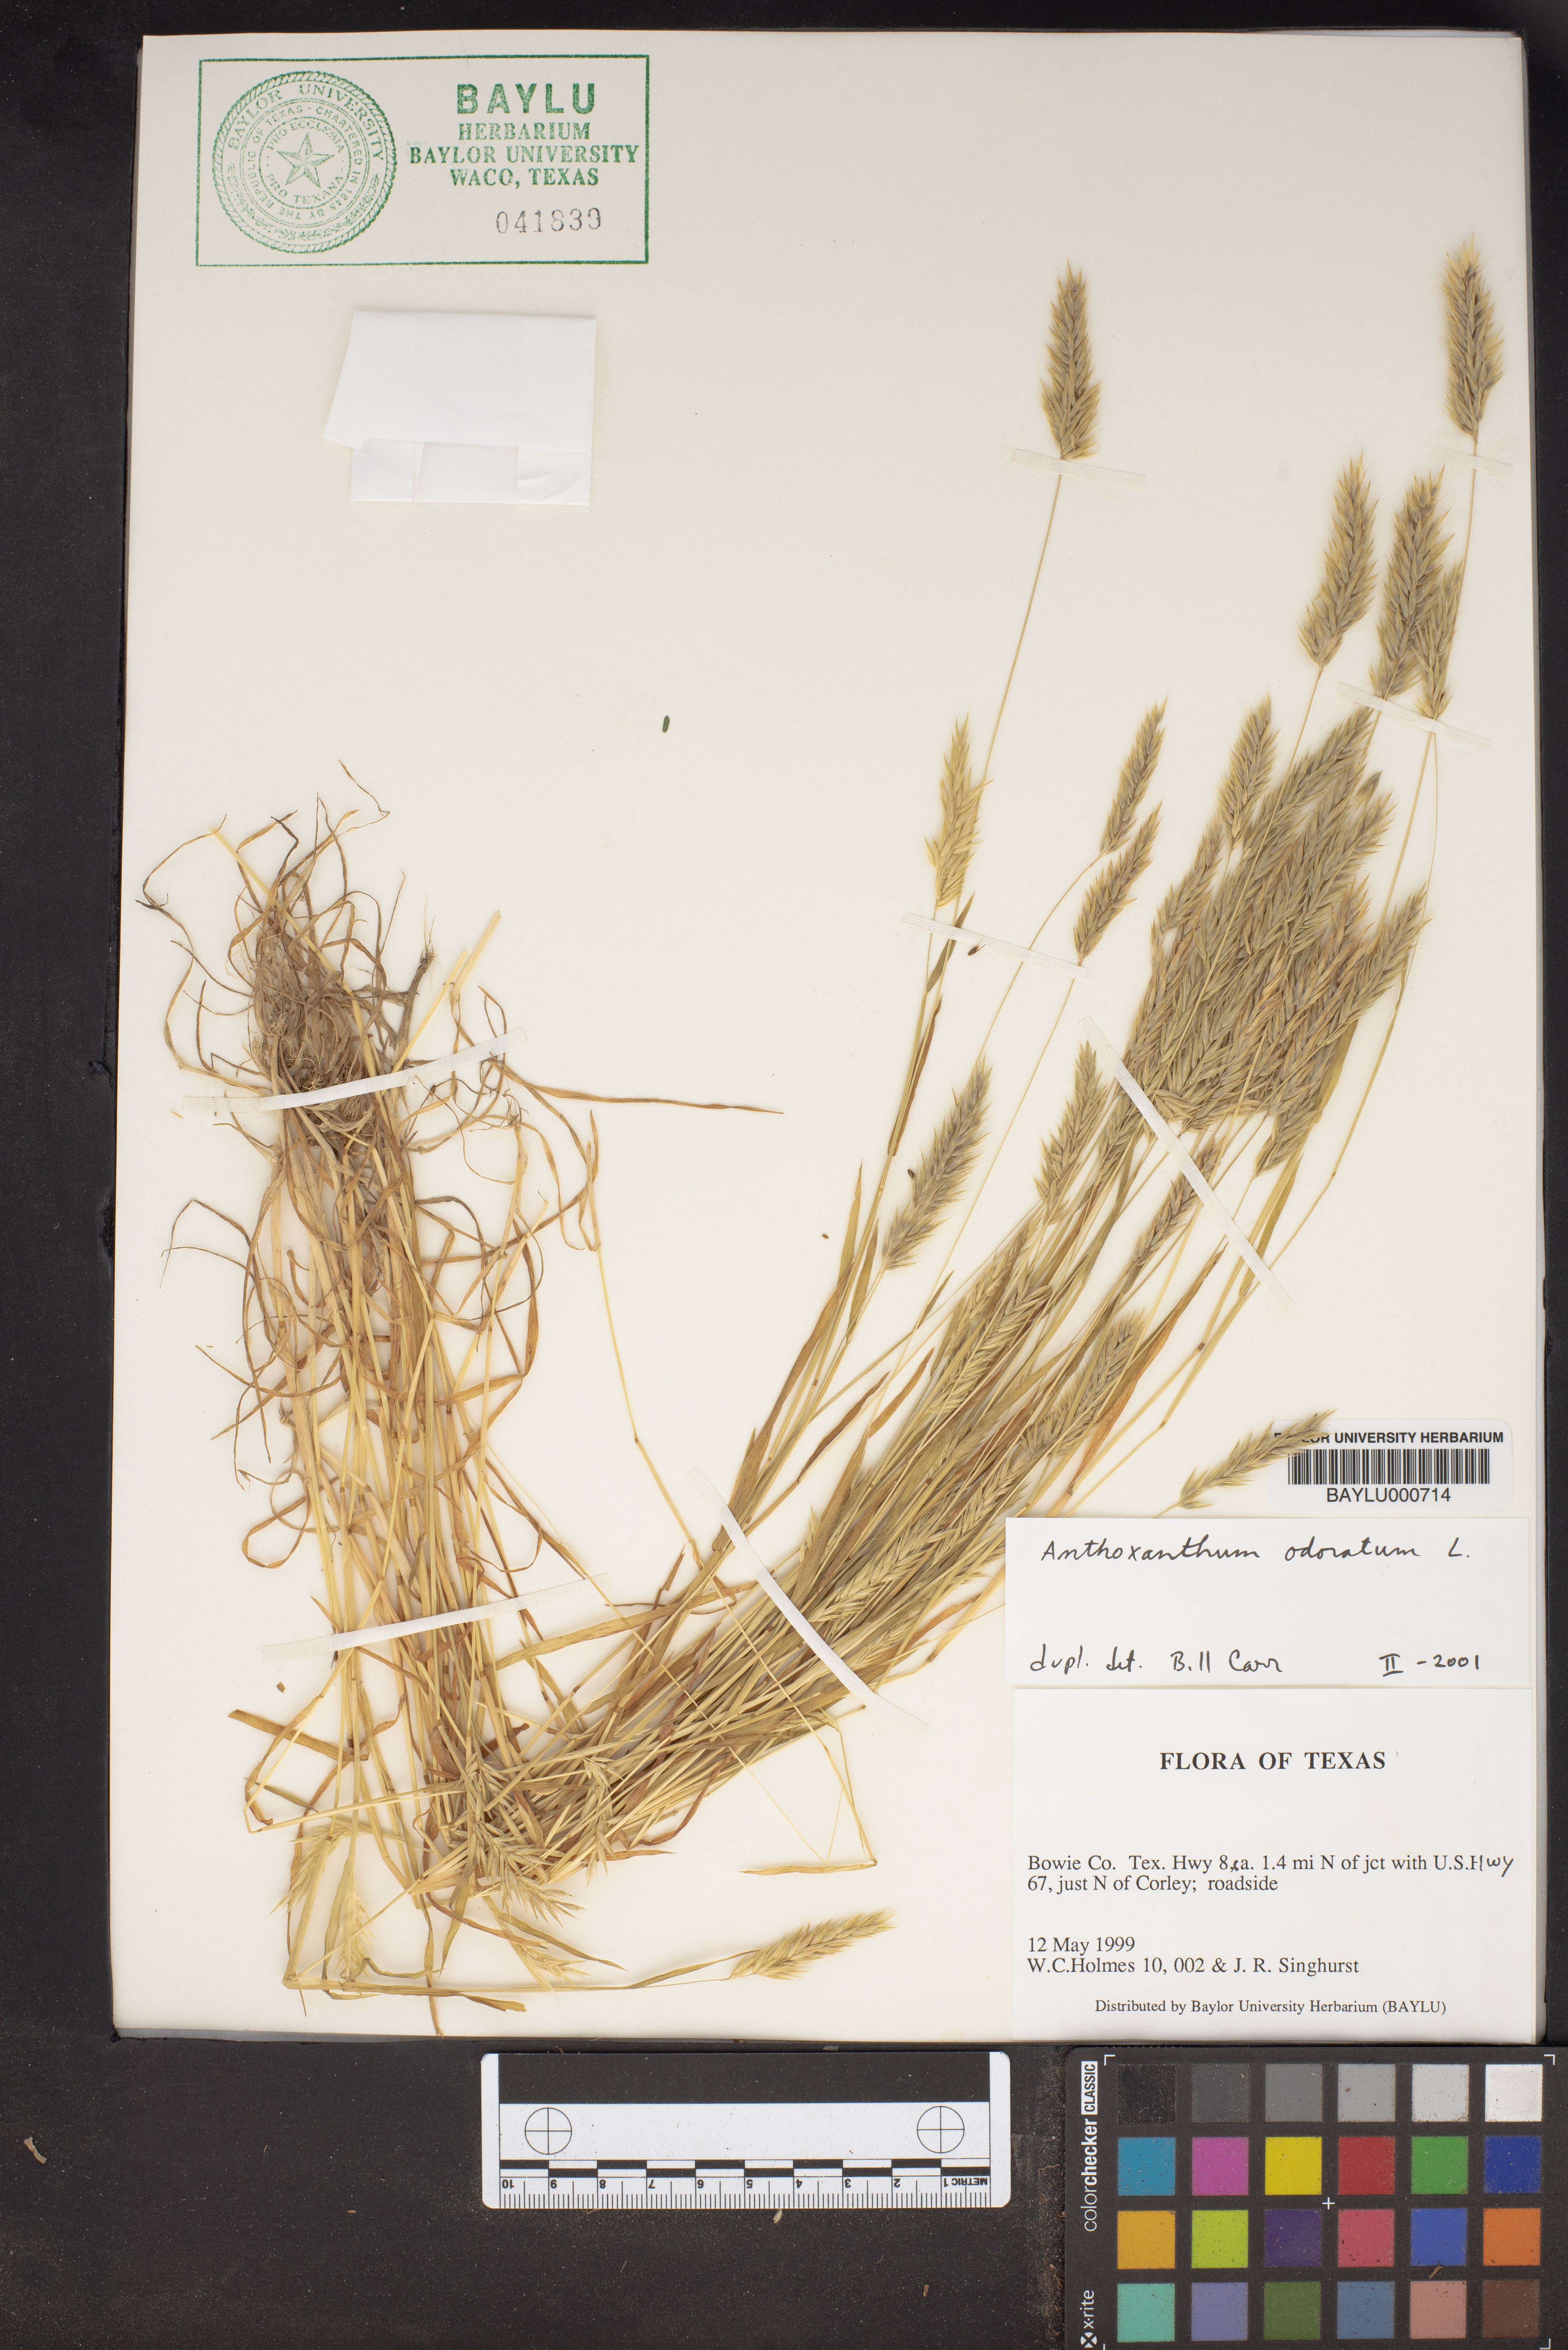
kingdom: Plantae
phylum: Tracheophyta
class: Liliopsida
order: Poales
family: Poaceae
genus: Anthoxanthum
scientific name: Anthoxanthum odoratum
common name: Sweet vernalgrass
